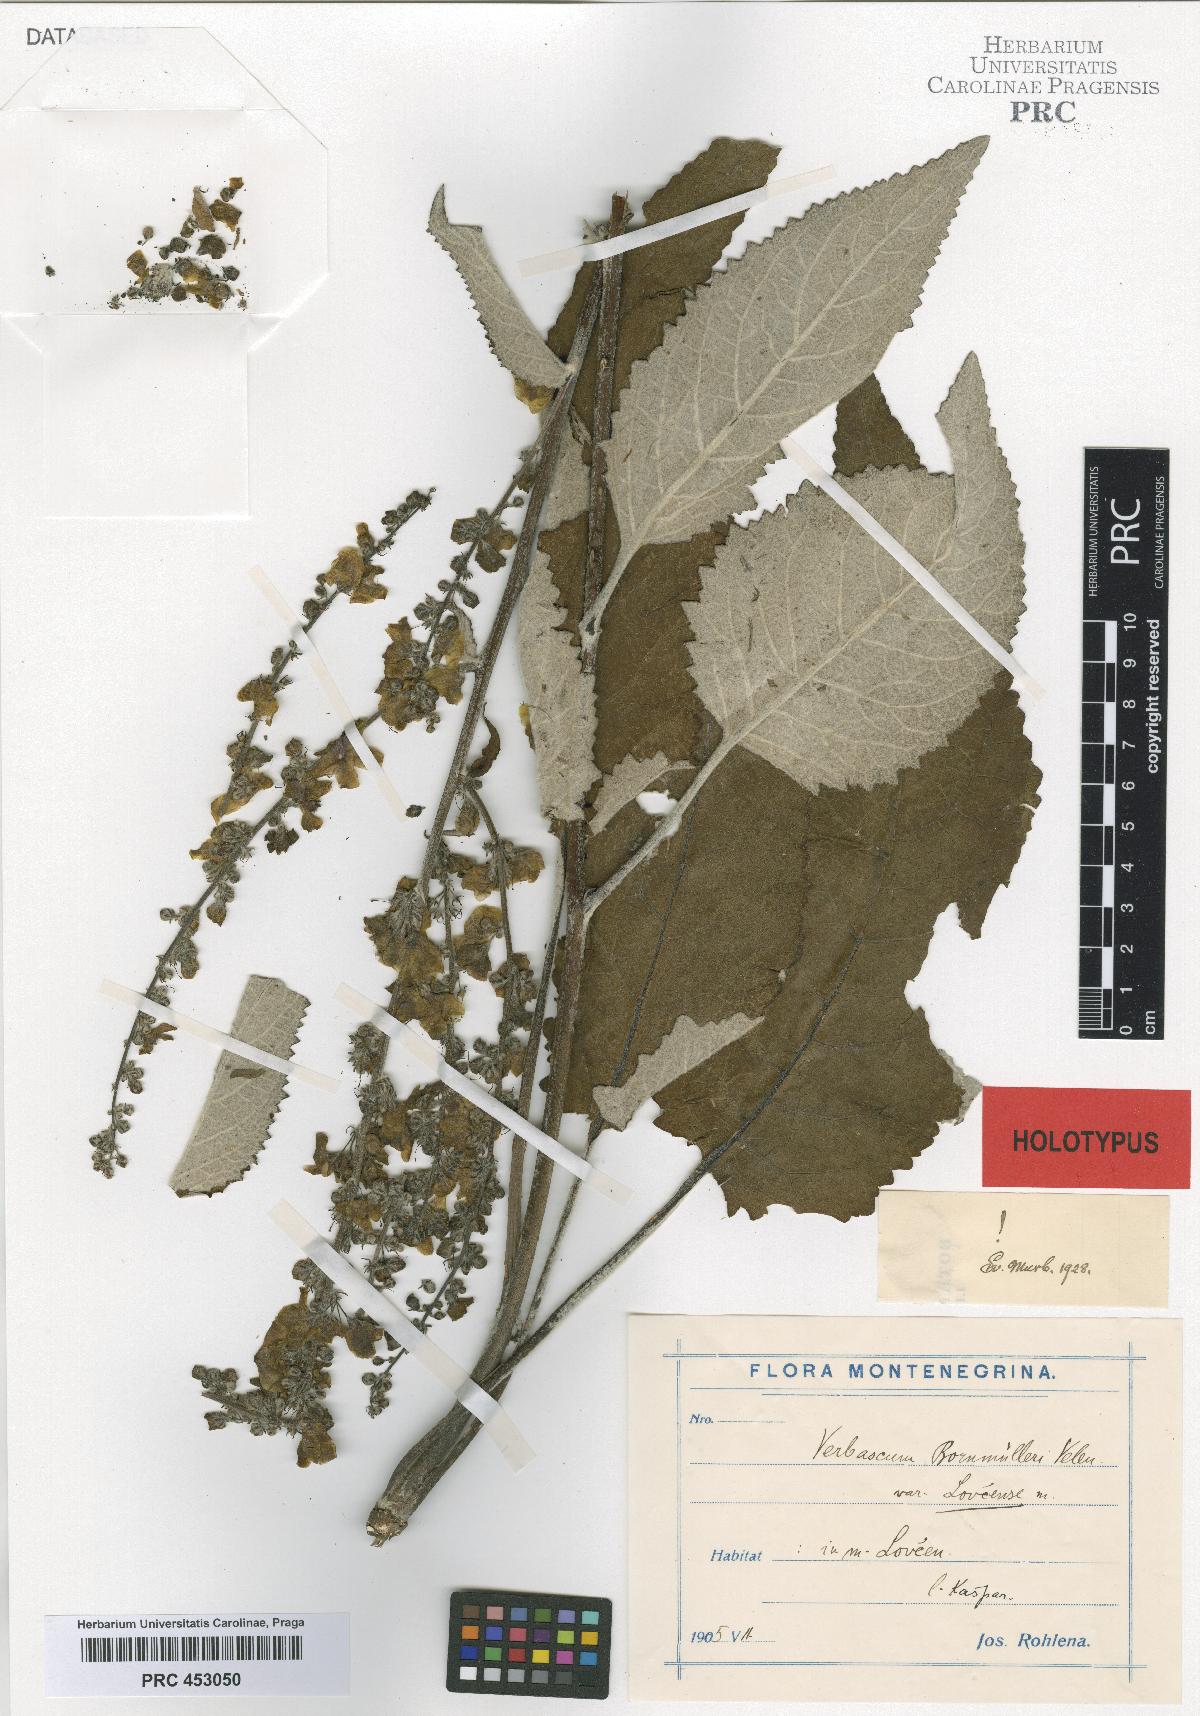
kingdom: Plantae
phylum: Tracheophyta
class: Magnoliopsida
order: Lamiales
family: Scrophulariaceae
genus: Verbascum
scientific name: Verbascum nigrum
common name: Dark mullein
